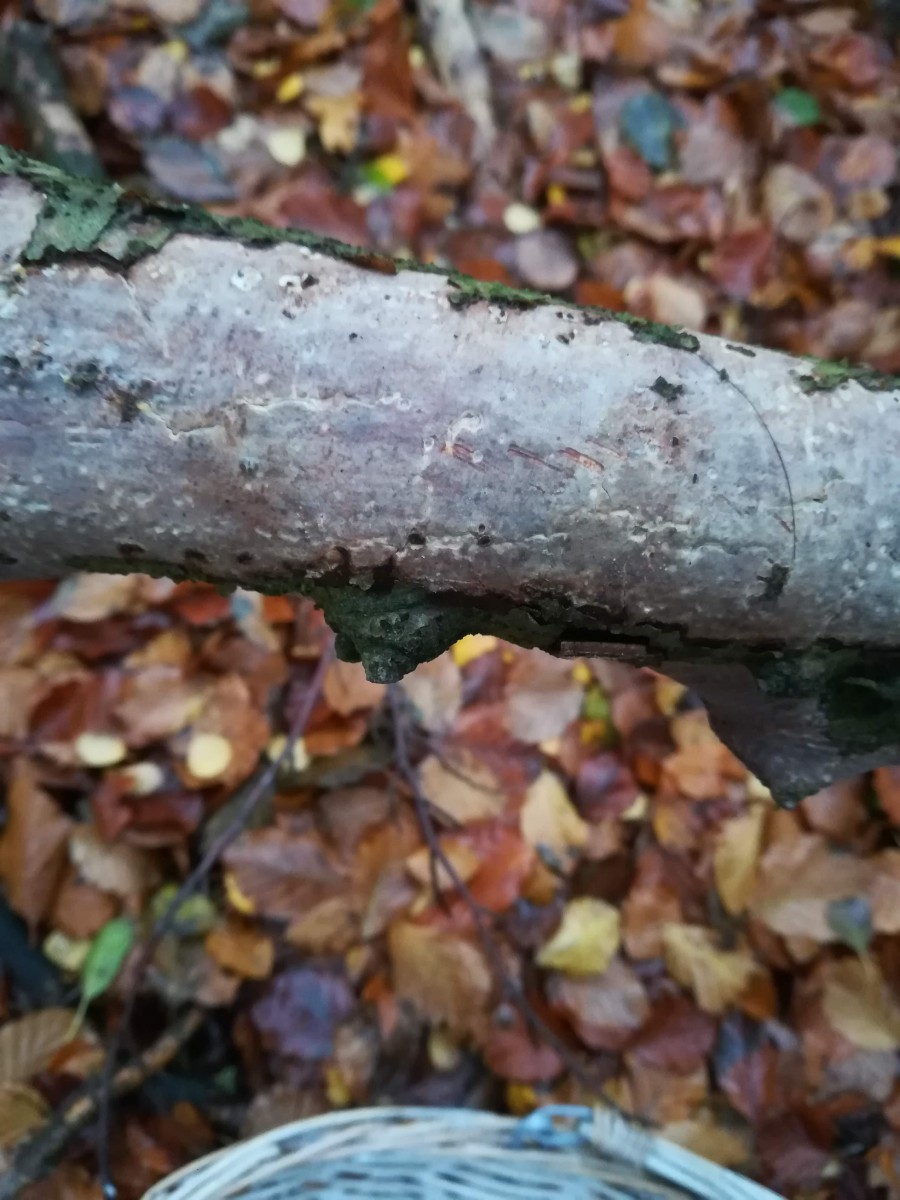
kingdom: Fungi
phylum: Basidiomycota
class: Agaricomycetes
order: Corticiales
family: Vuilleminiaceae
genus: Vuilleminia
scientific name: Vuilleminia comedens
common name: almindelig barksprænger
